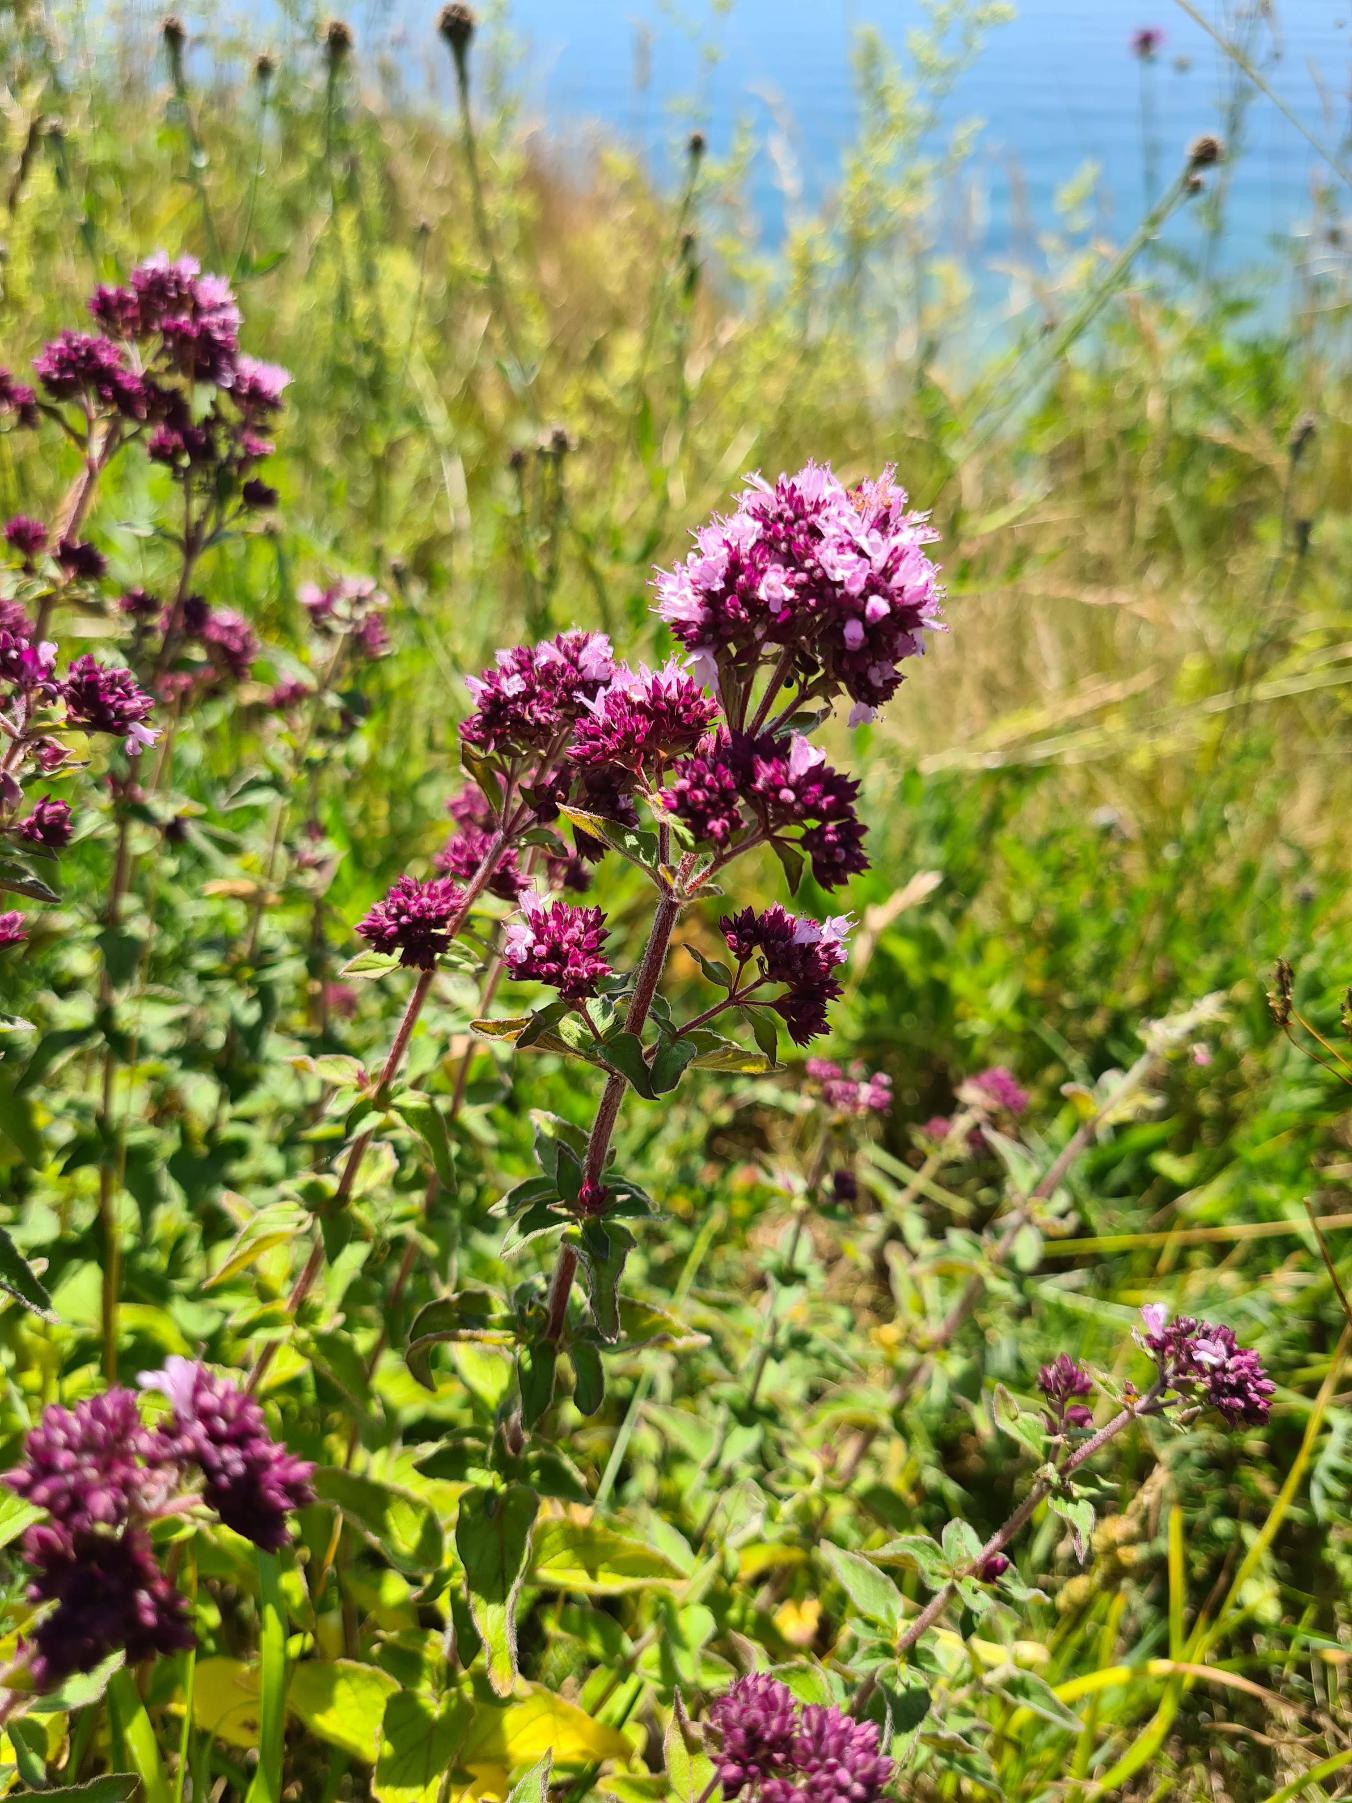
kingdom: Plantae
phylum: Tracheophyta
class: Magnoliopsida
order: Lamiales
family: Lamiaceae
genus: Origanum
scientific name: Origanum vulgare
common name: Merian
